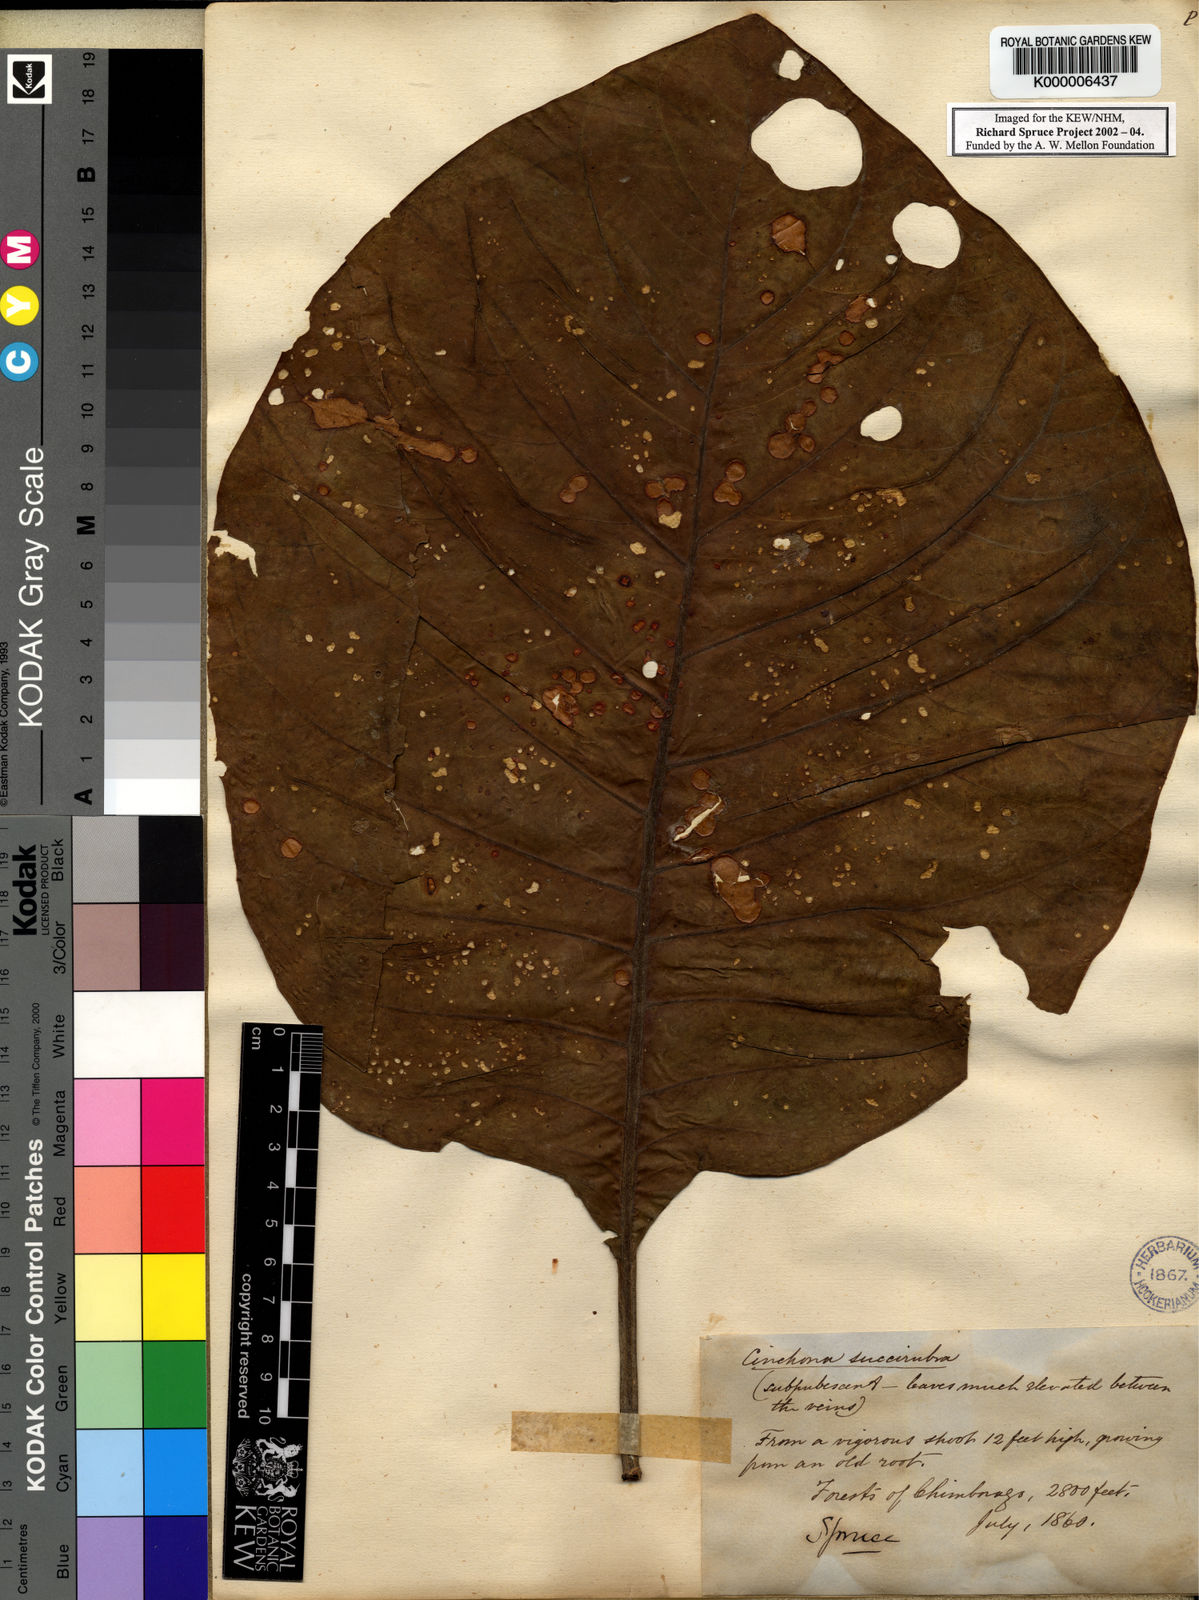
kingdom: Plantae
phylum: Tracheophyta
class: Magnoliopsida
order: Gentianales
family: Rubiaceae
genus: Cinchona
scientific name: Cinchona pubescens
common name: Quinine
